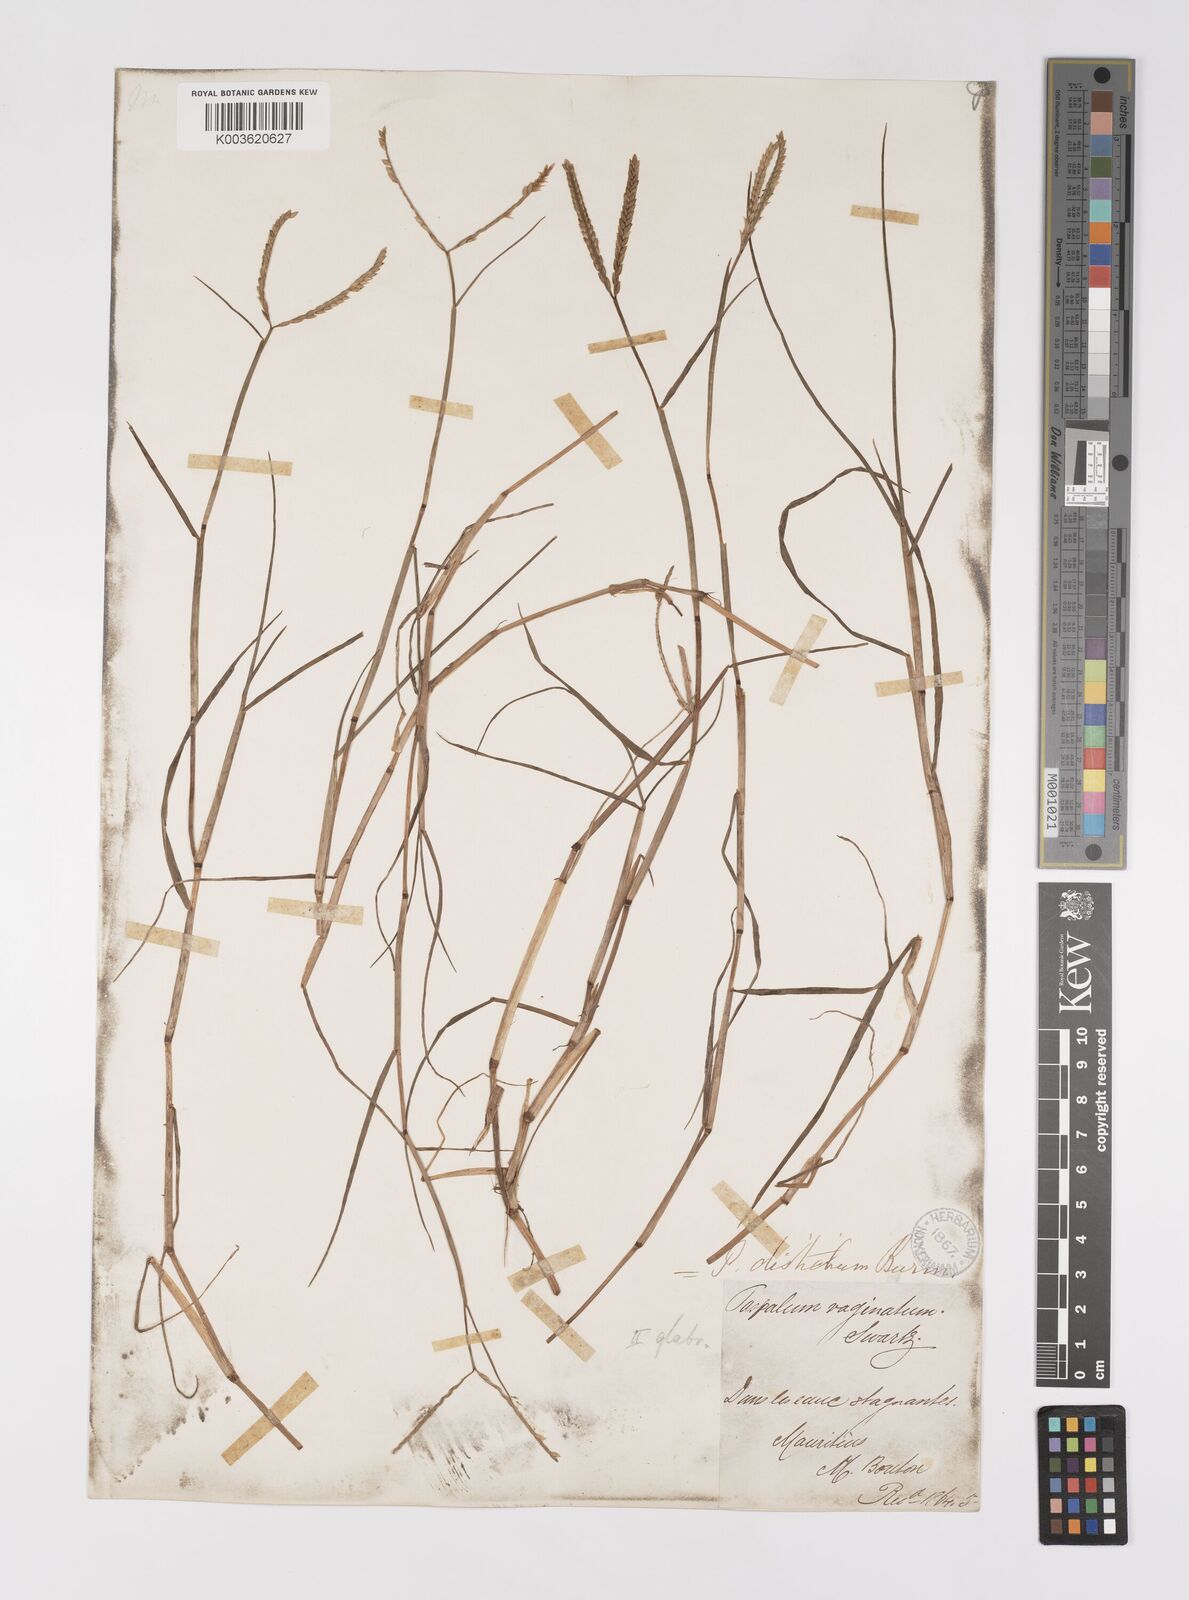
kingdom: Plantae
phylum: Tracheophyta
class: Liliopsida
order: Poales
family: Poaceae
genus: Paspalum
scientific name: Paspalum vaginatum
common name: Seashore paspalum
